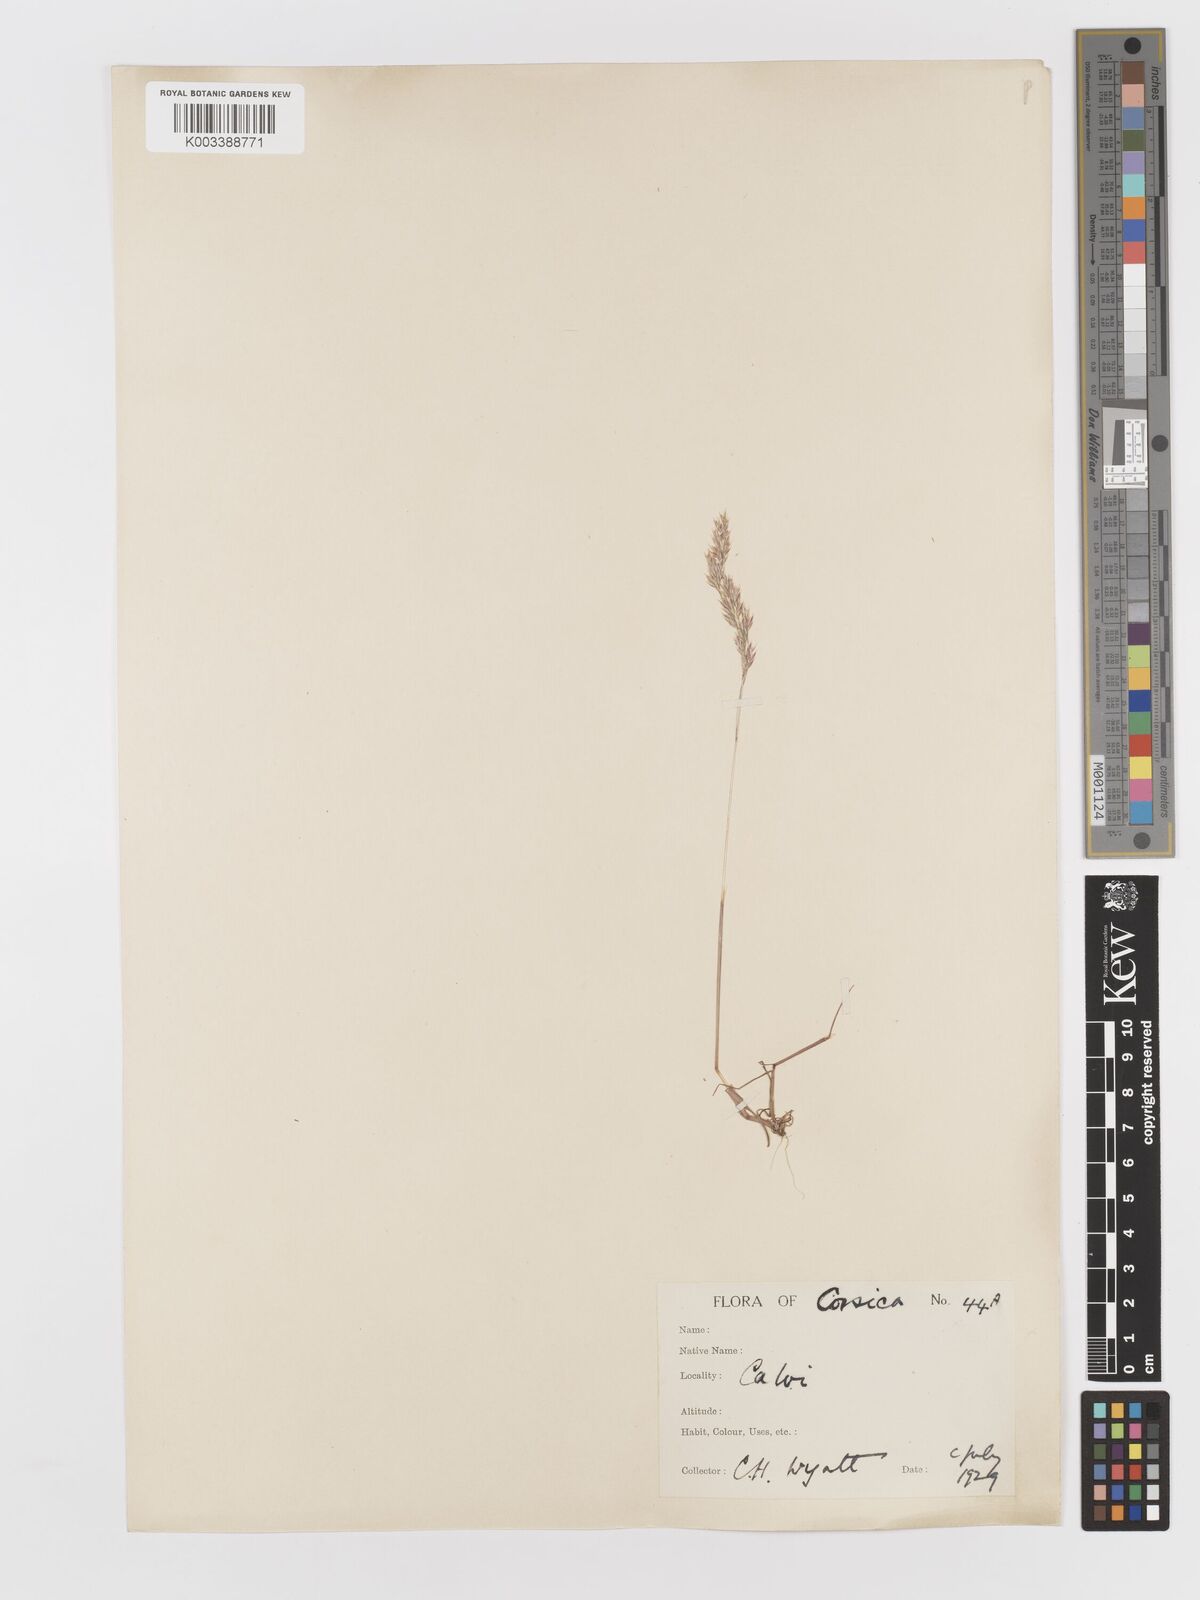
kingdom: Plantae
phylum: Tracheophyta
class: Liliopsida
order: Poales
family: Poaceae
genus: Corynephorus
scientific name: Corynephorus canescens
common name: Grey hair-grass
